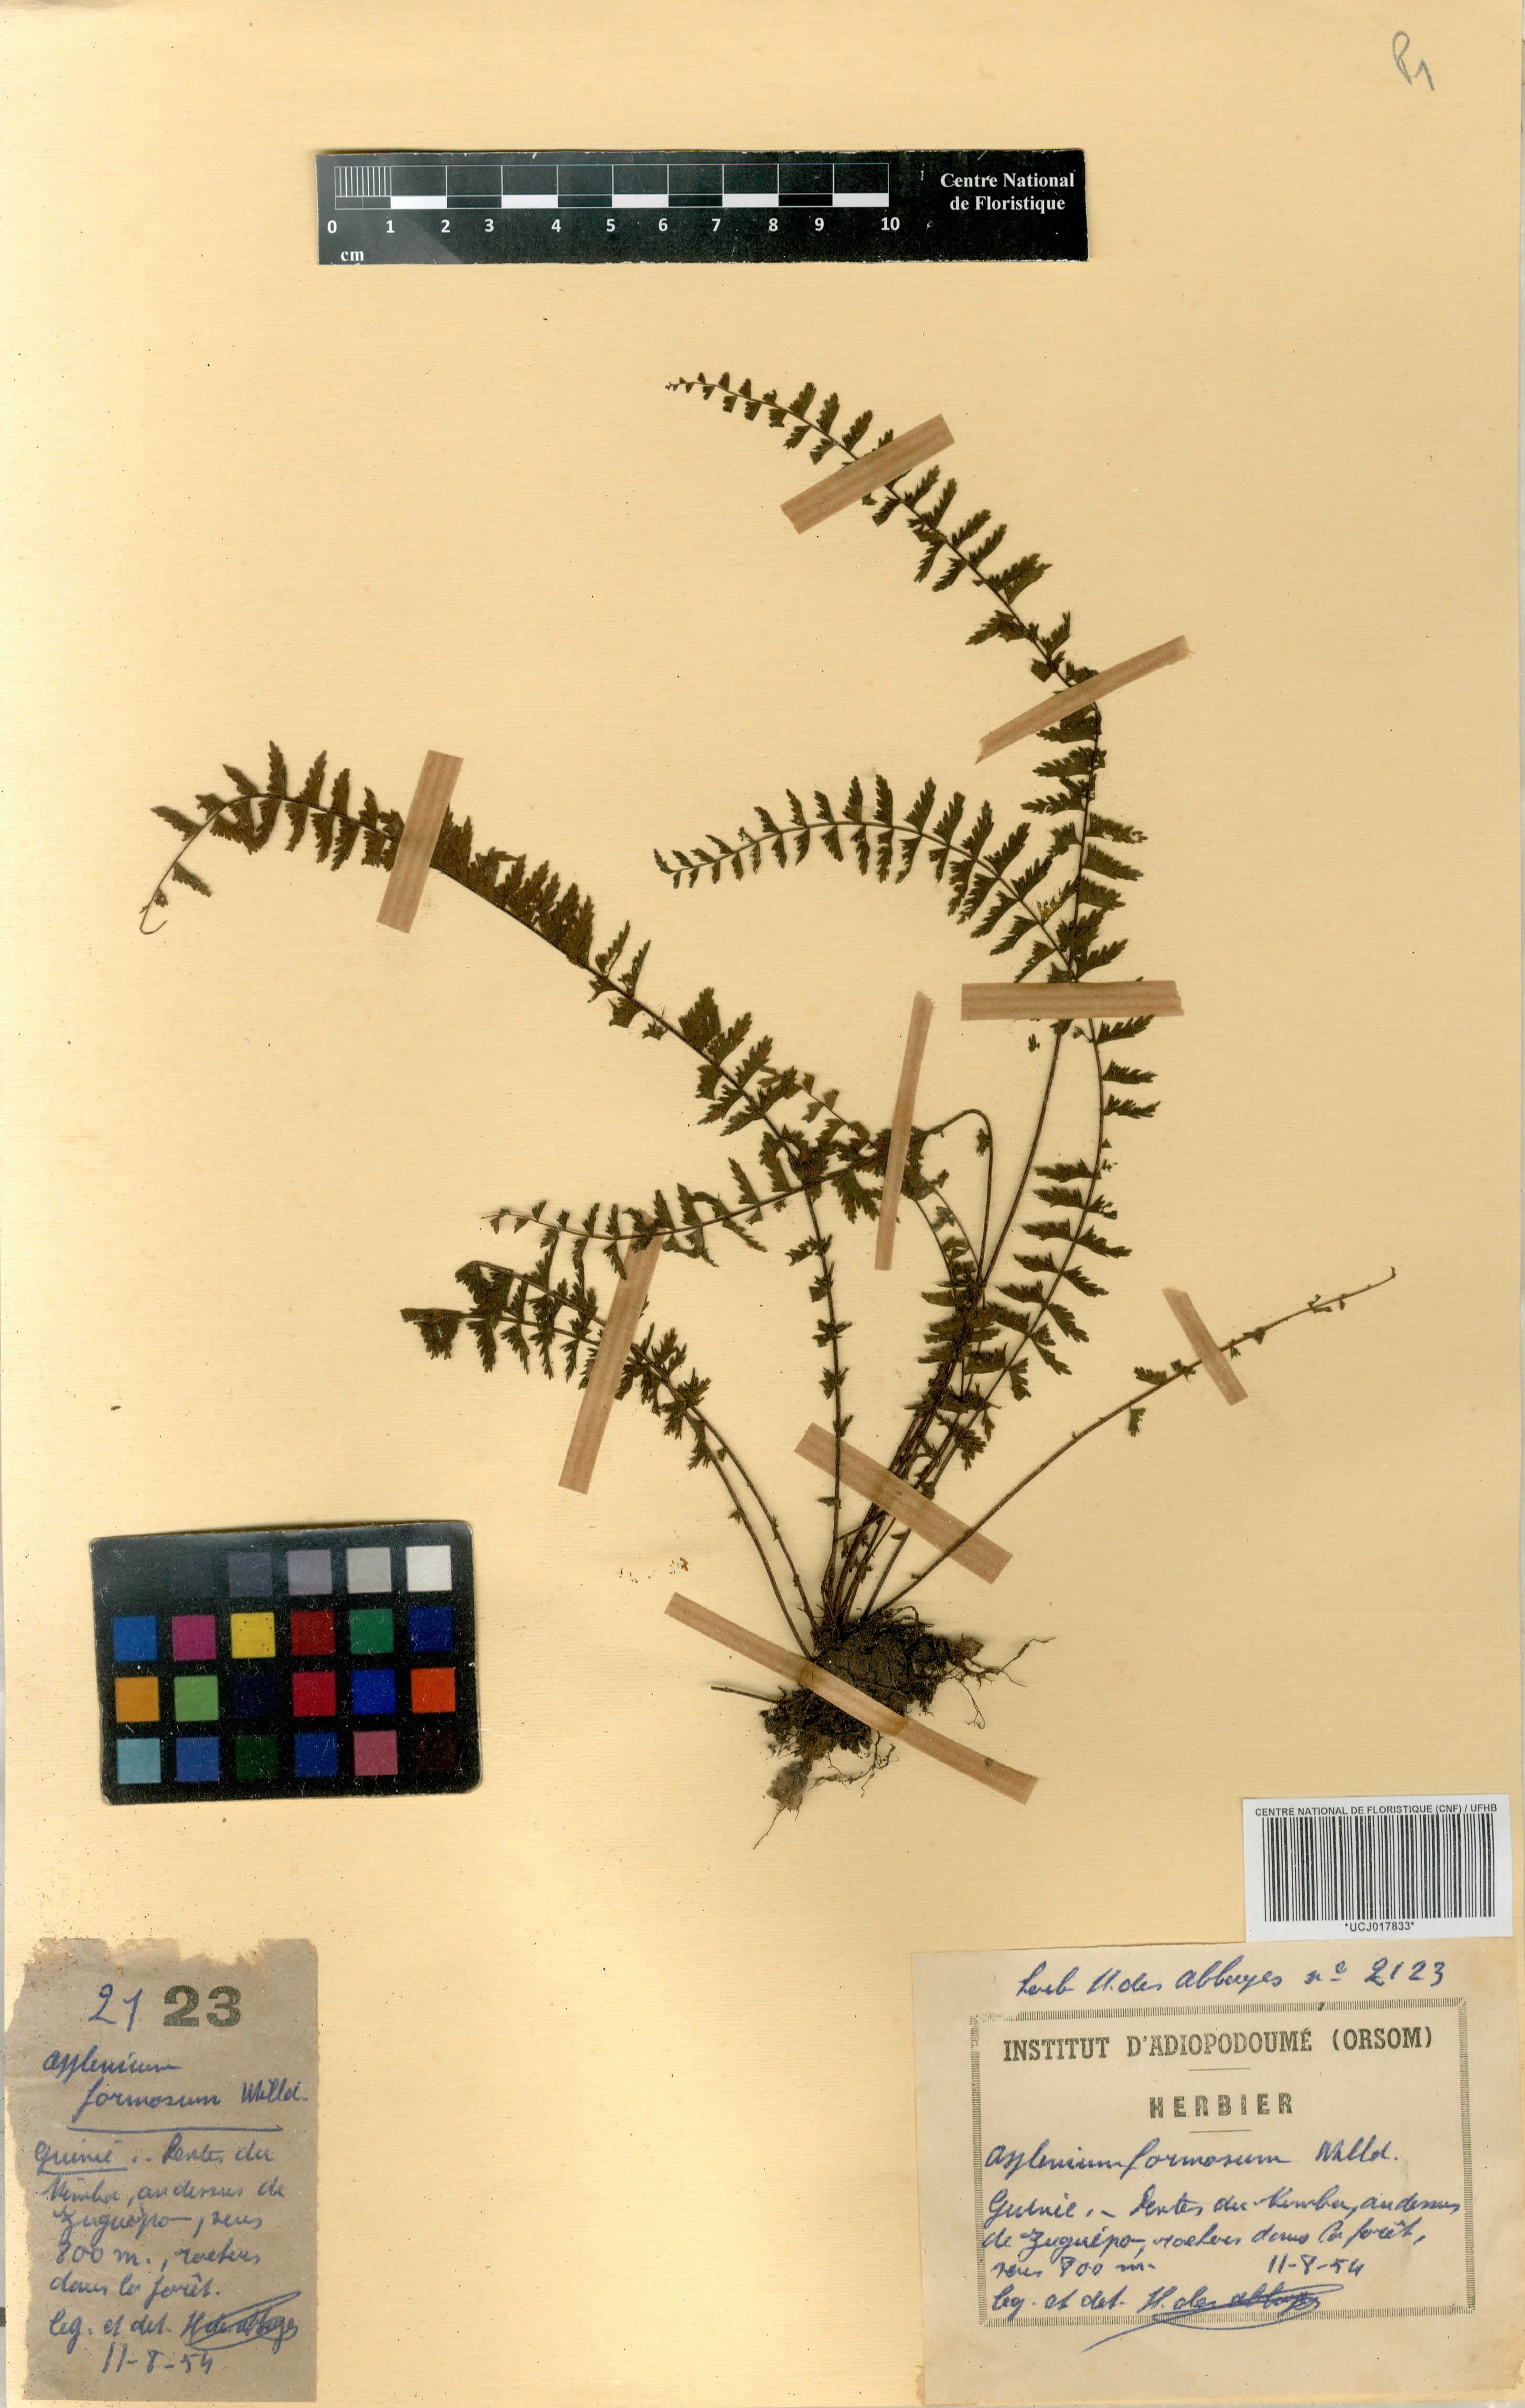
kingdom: Plantae
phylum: Tracheophyta
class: Polypodiopsida
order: Polypodiales
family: Aspleniaceae
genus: Asplenium
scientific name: Asplenium formosum
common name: Showy spleenwort
